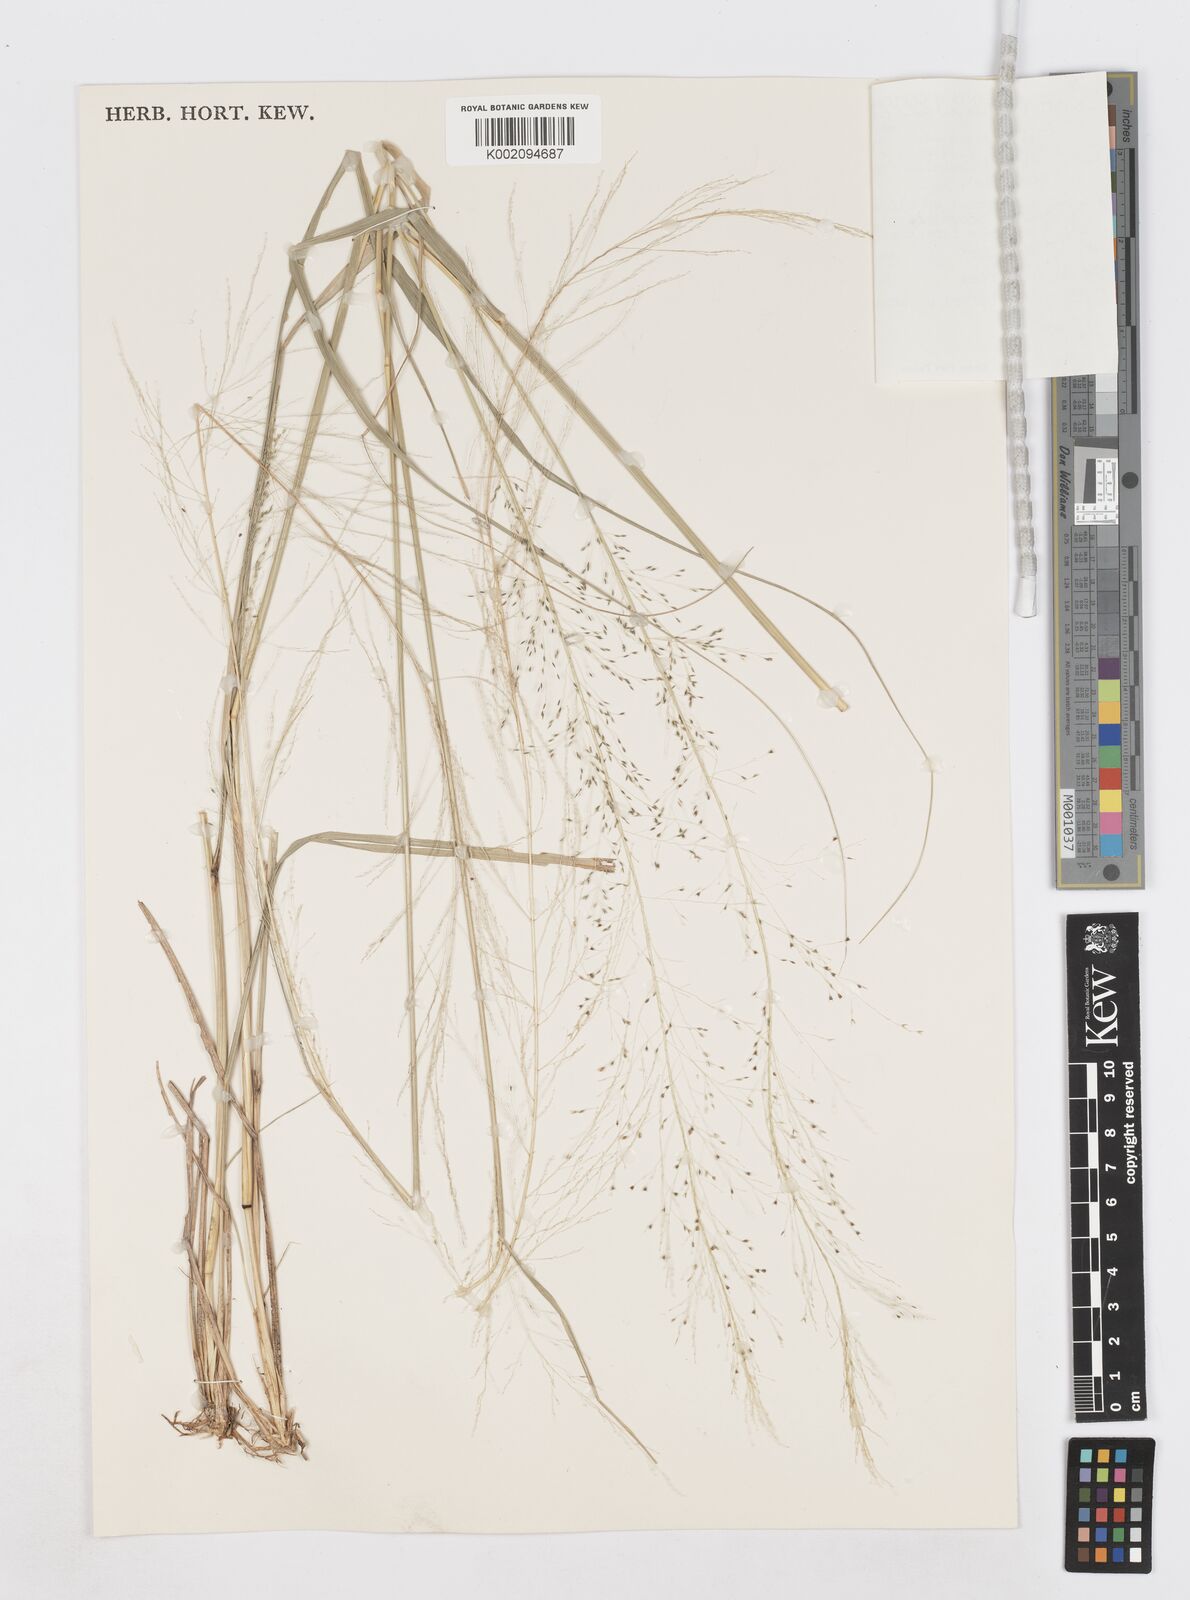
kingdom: Plantae
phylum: Tracheophyta
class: Liliopsida
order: Poales
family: Poaceae
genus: Sporobolus
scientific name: Sporobolus wallichii
